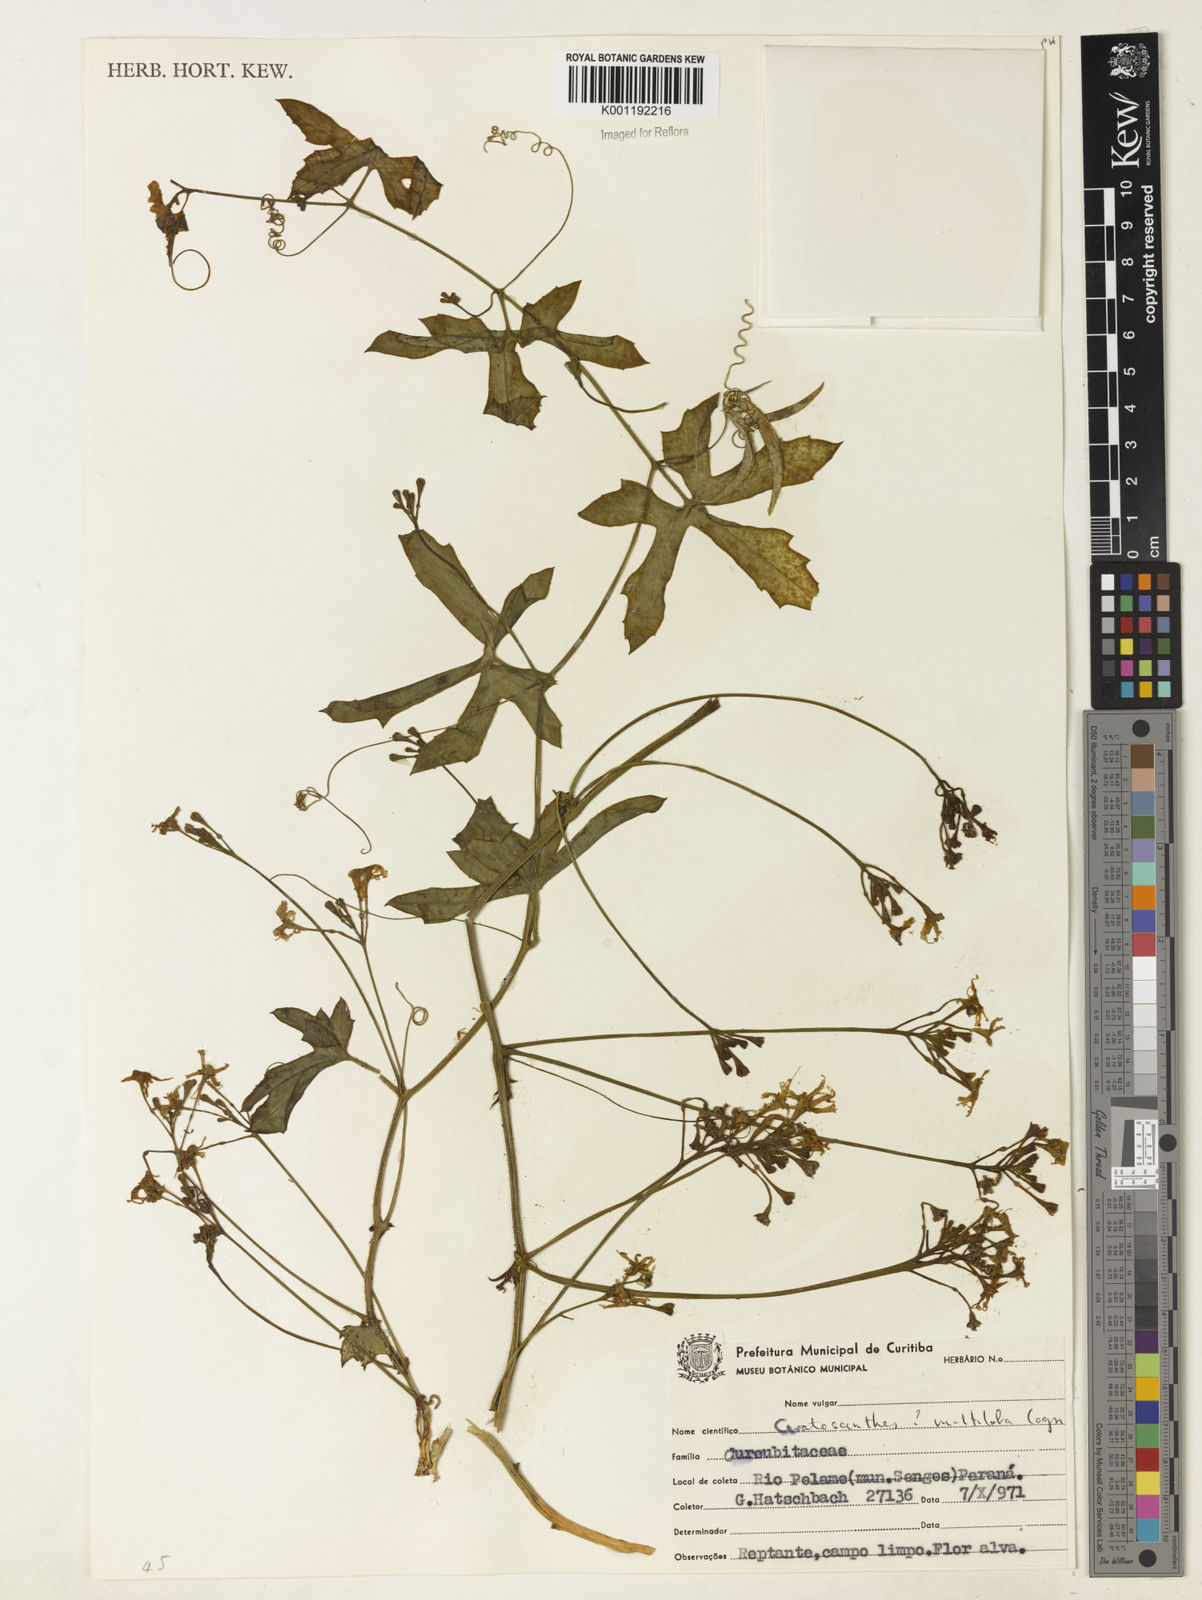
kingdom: Plantae
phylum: Tracheophyta
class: Magnoliopsida
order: Cucurbitales
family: Cucurbitaceae
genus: Ceratosanthes
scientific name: Ceratosanthes multiloba
